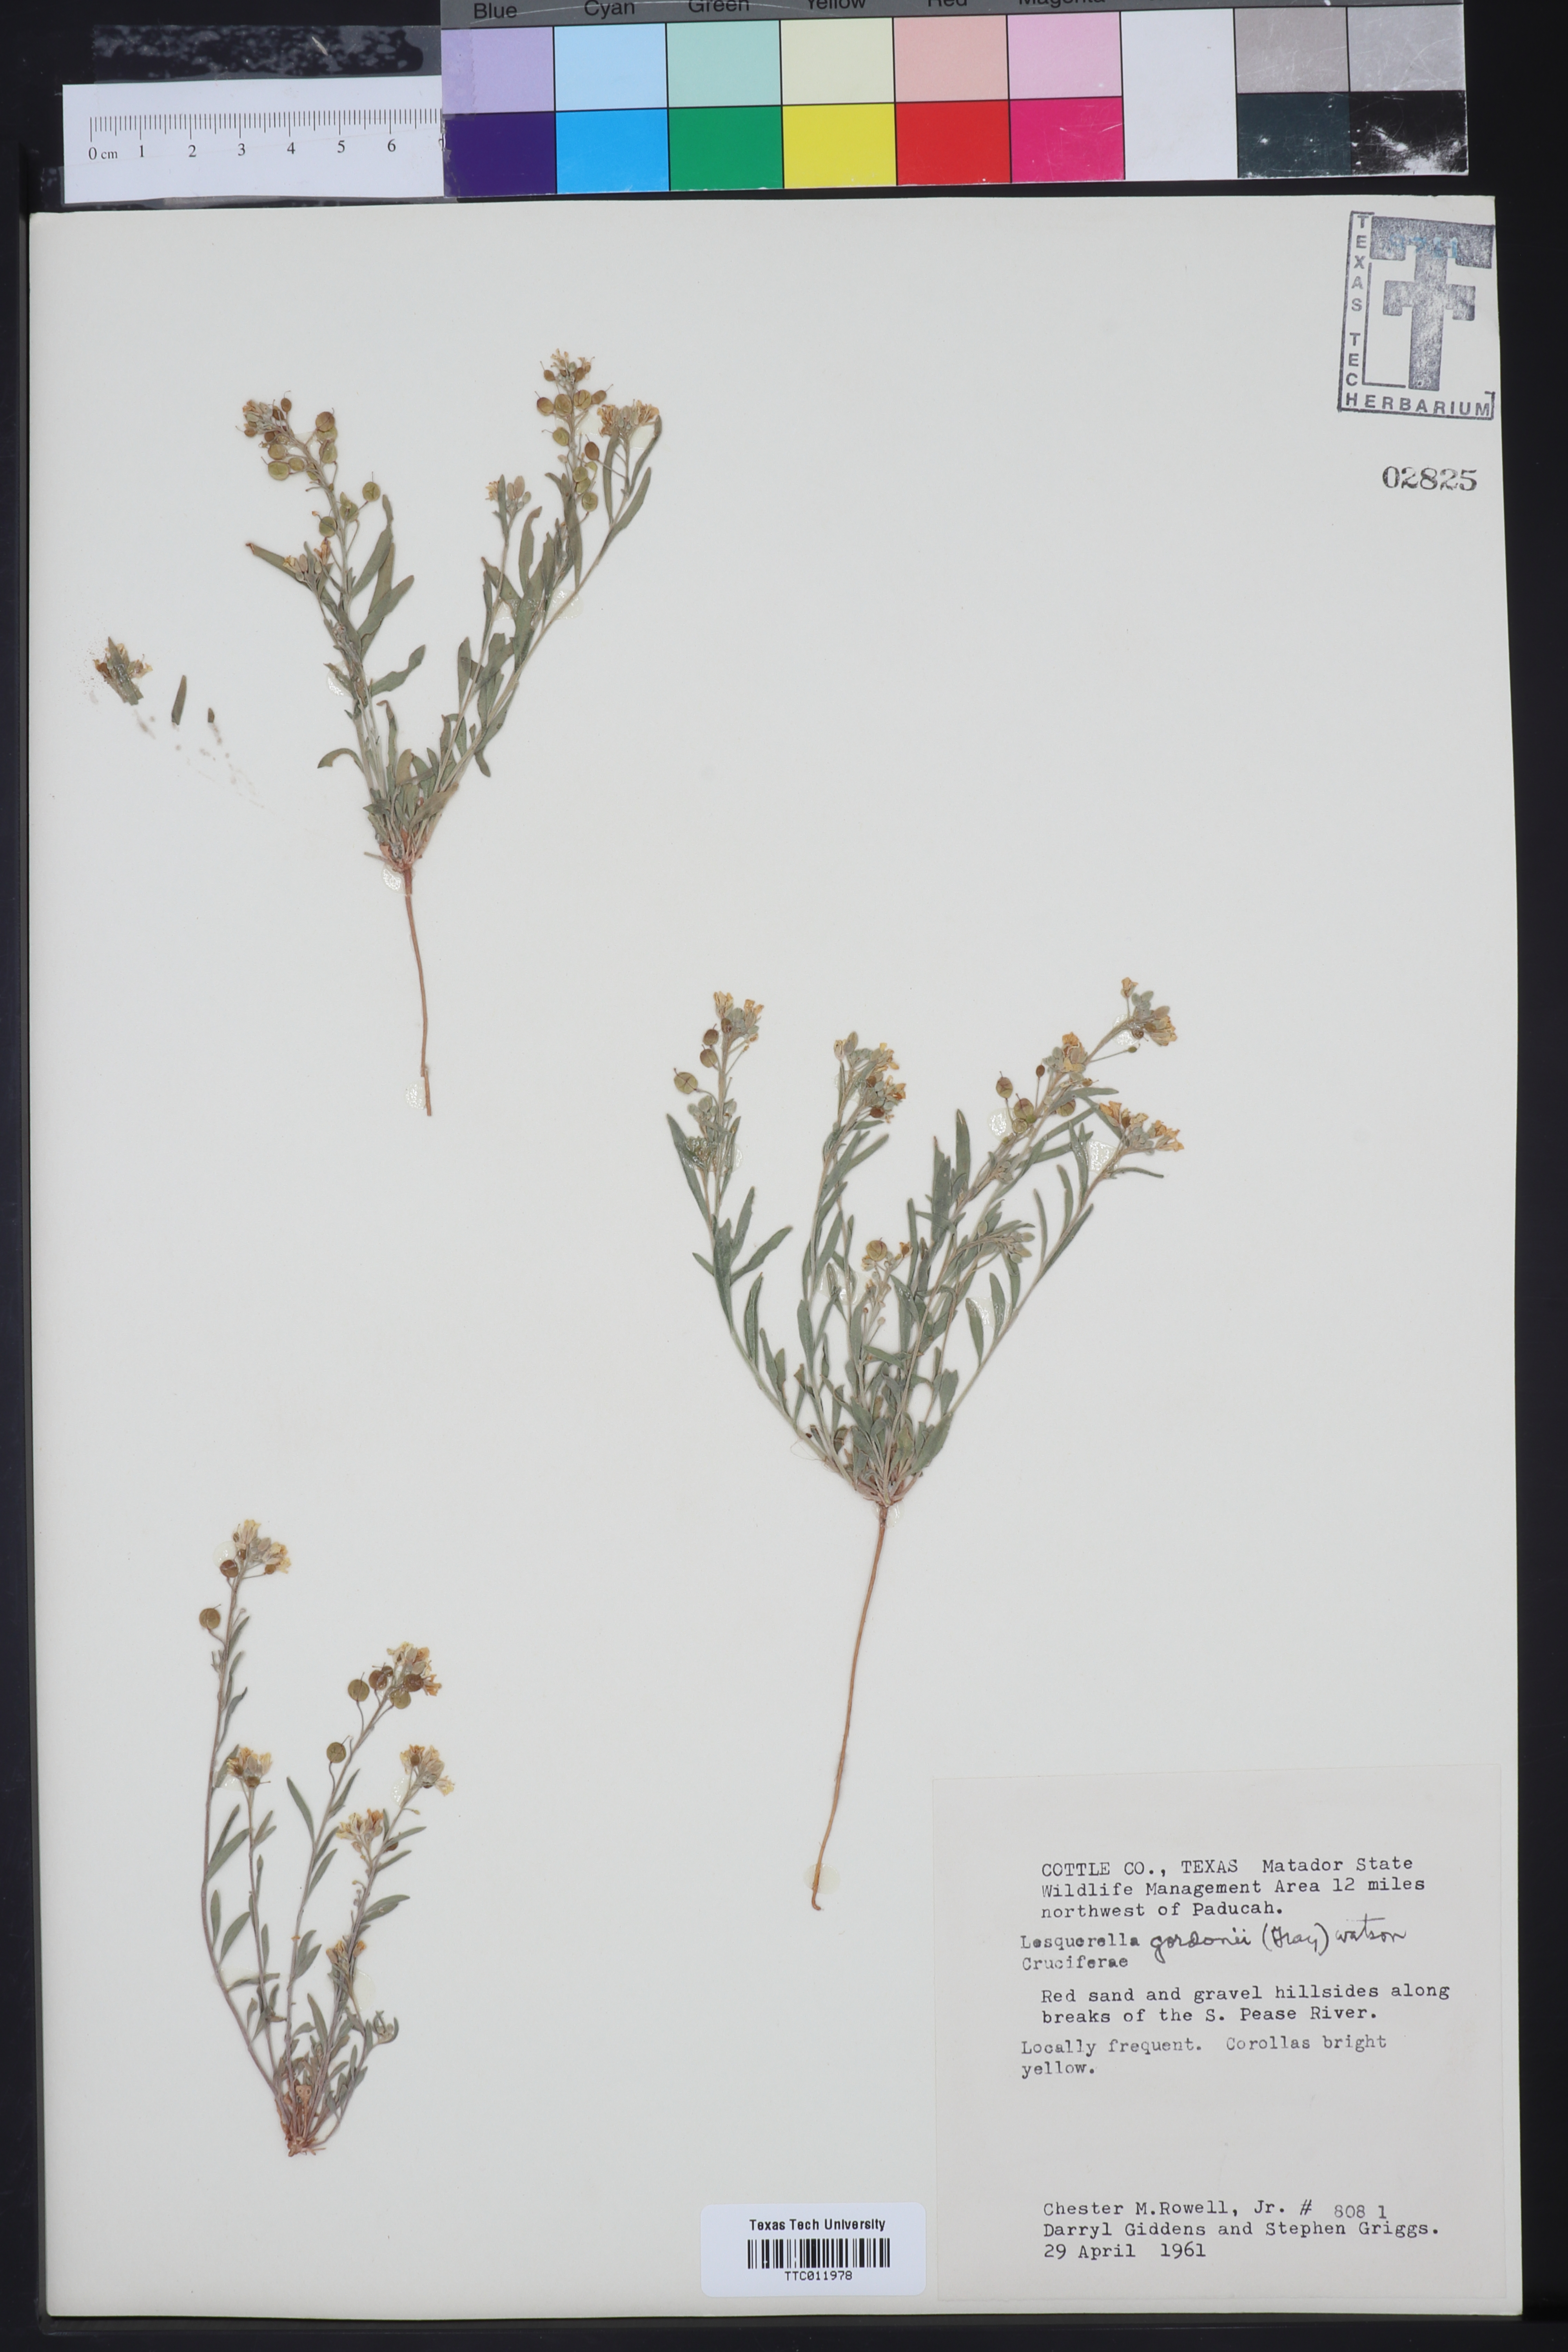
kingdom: Plantae
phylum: Tracheophyta
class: Magnoliopsida
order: Brassicales
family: Brassicaceae
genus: Physaria
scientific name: Physaria gordonii
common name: Gordon's bladderpod
